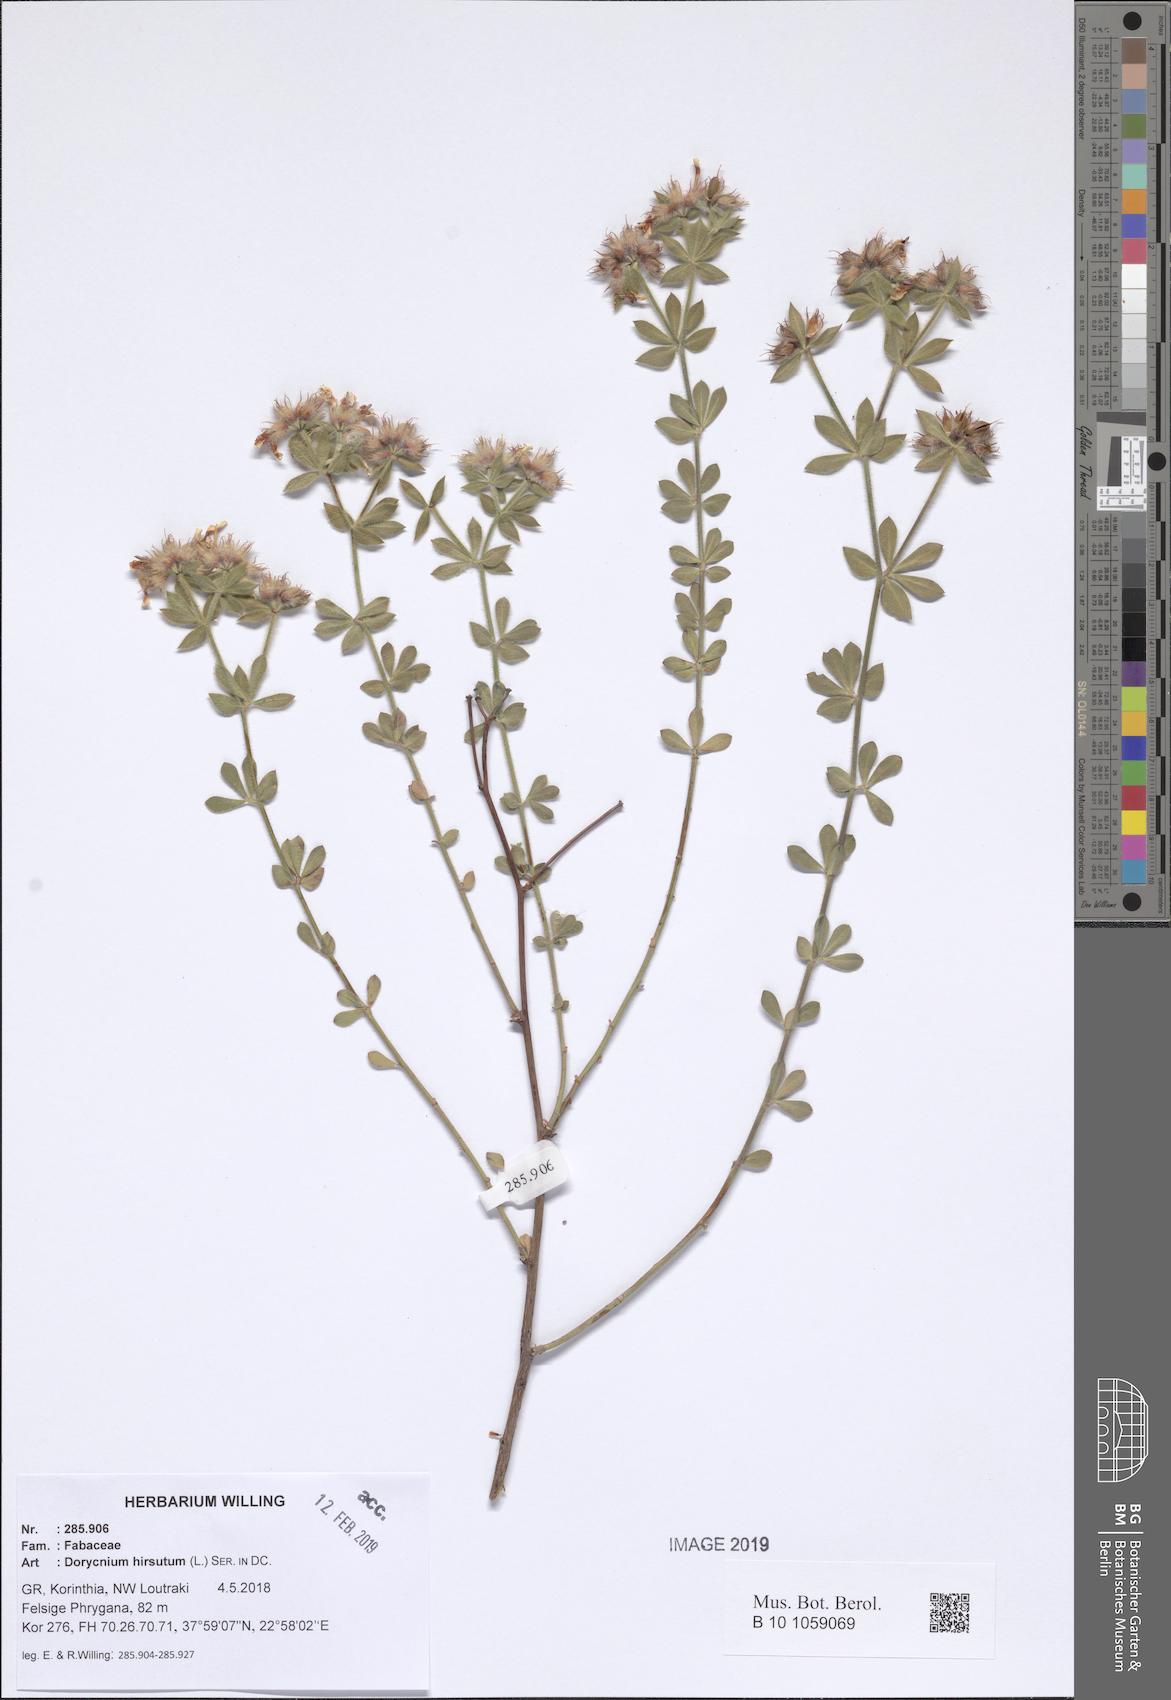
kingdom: Plantae
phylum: Tracheophyta
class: Magnoliopsida
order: Fabales
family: Fabaceae
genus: Lotus
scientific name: Lotus hirsutus
